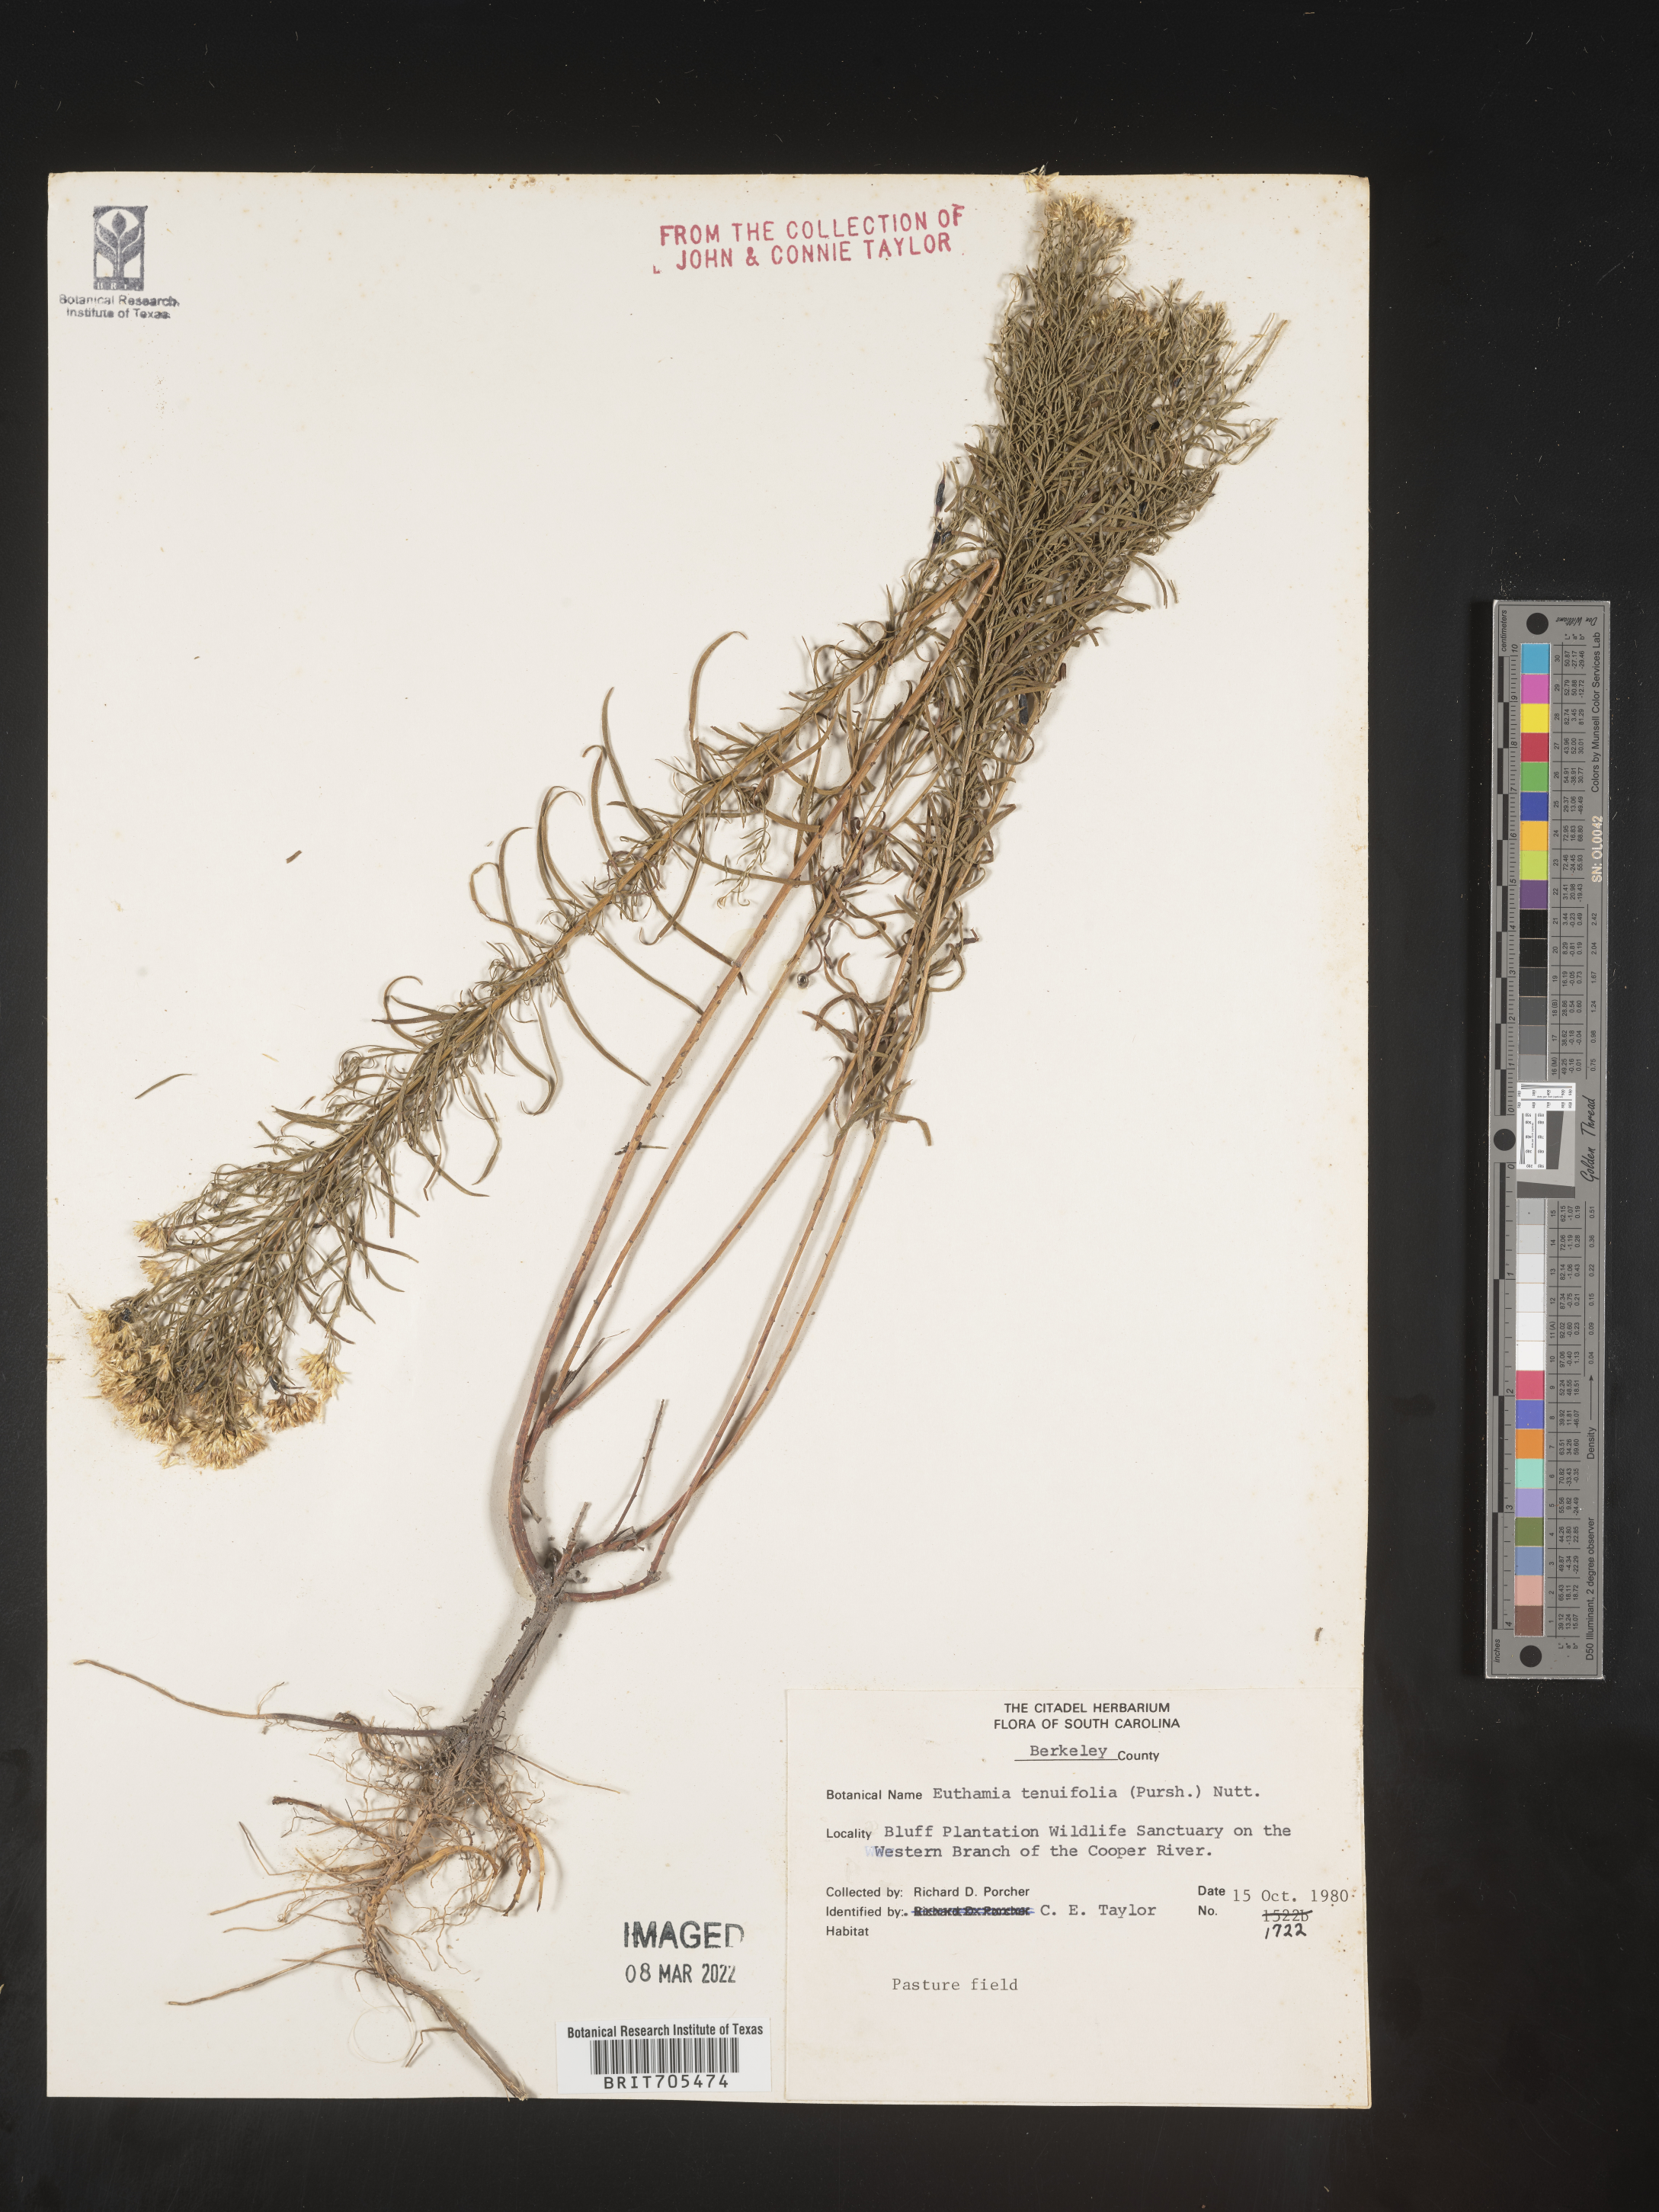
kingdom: Plantae
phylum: Tracheophyta
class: Magnoliopsida
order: Asterales
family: Asteraceae
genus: Euthamia
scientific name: Euthamia caroliniana
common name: Coastal plain goldentop
